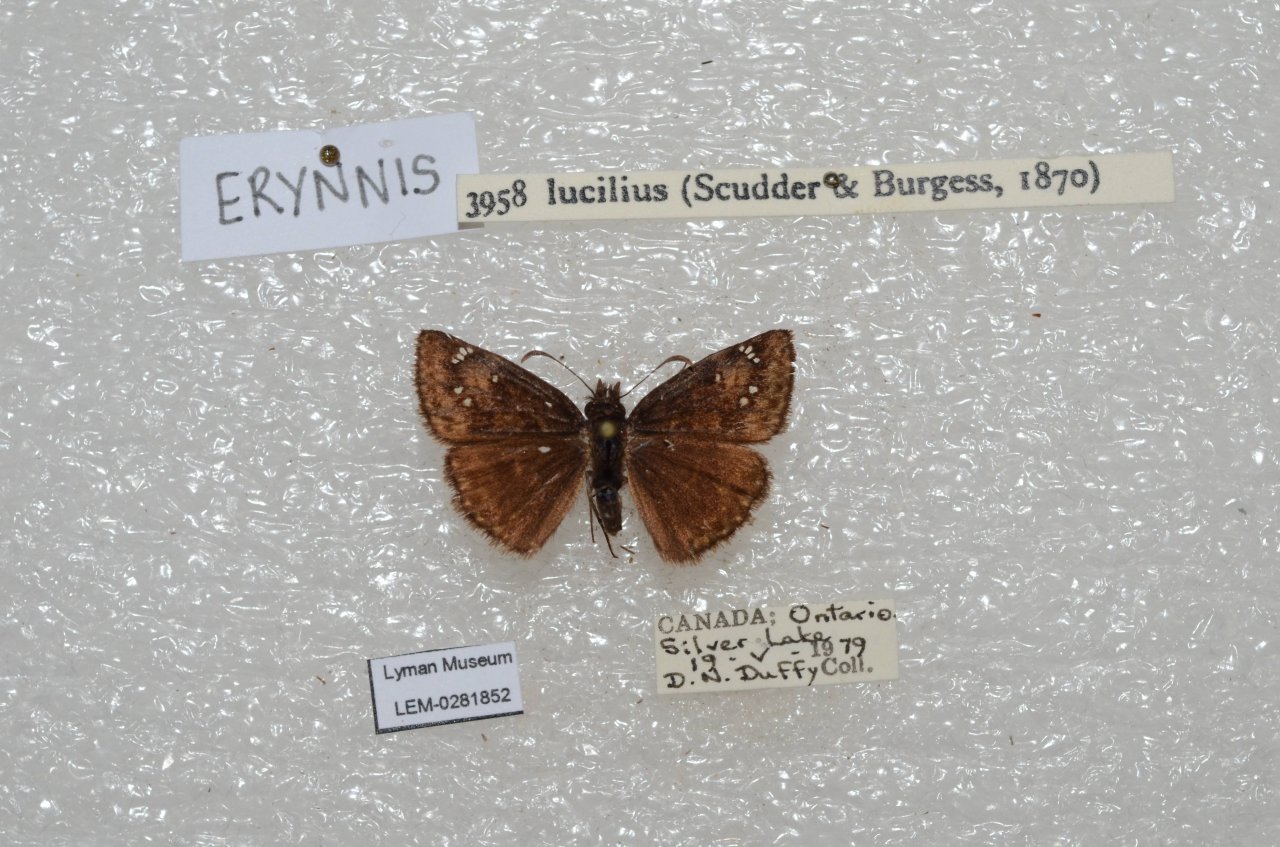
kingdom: Animalia
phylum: Arthropoda
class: Insecta
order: Lepidoptera
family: Hesperiidae
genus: Gesta
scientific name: Gesta
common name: Columbine Duskywing
